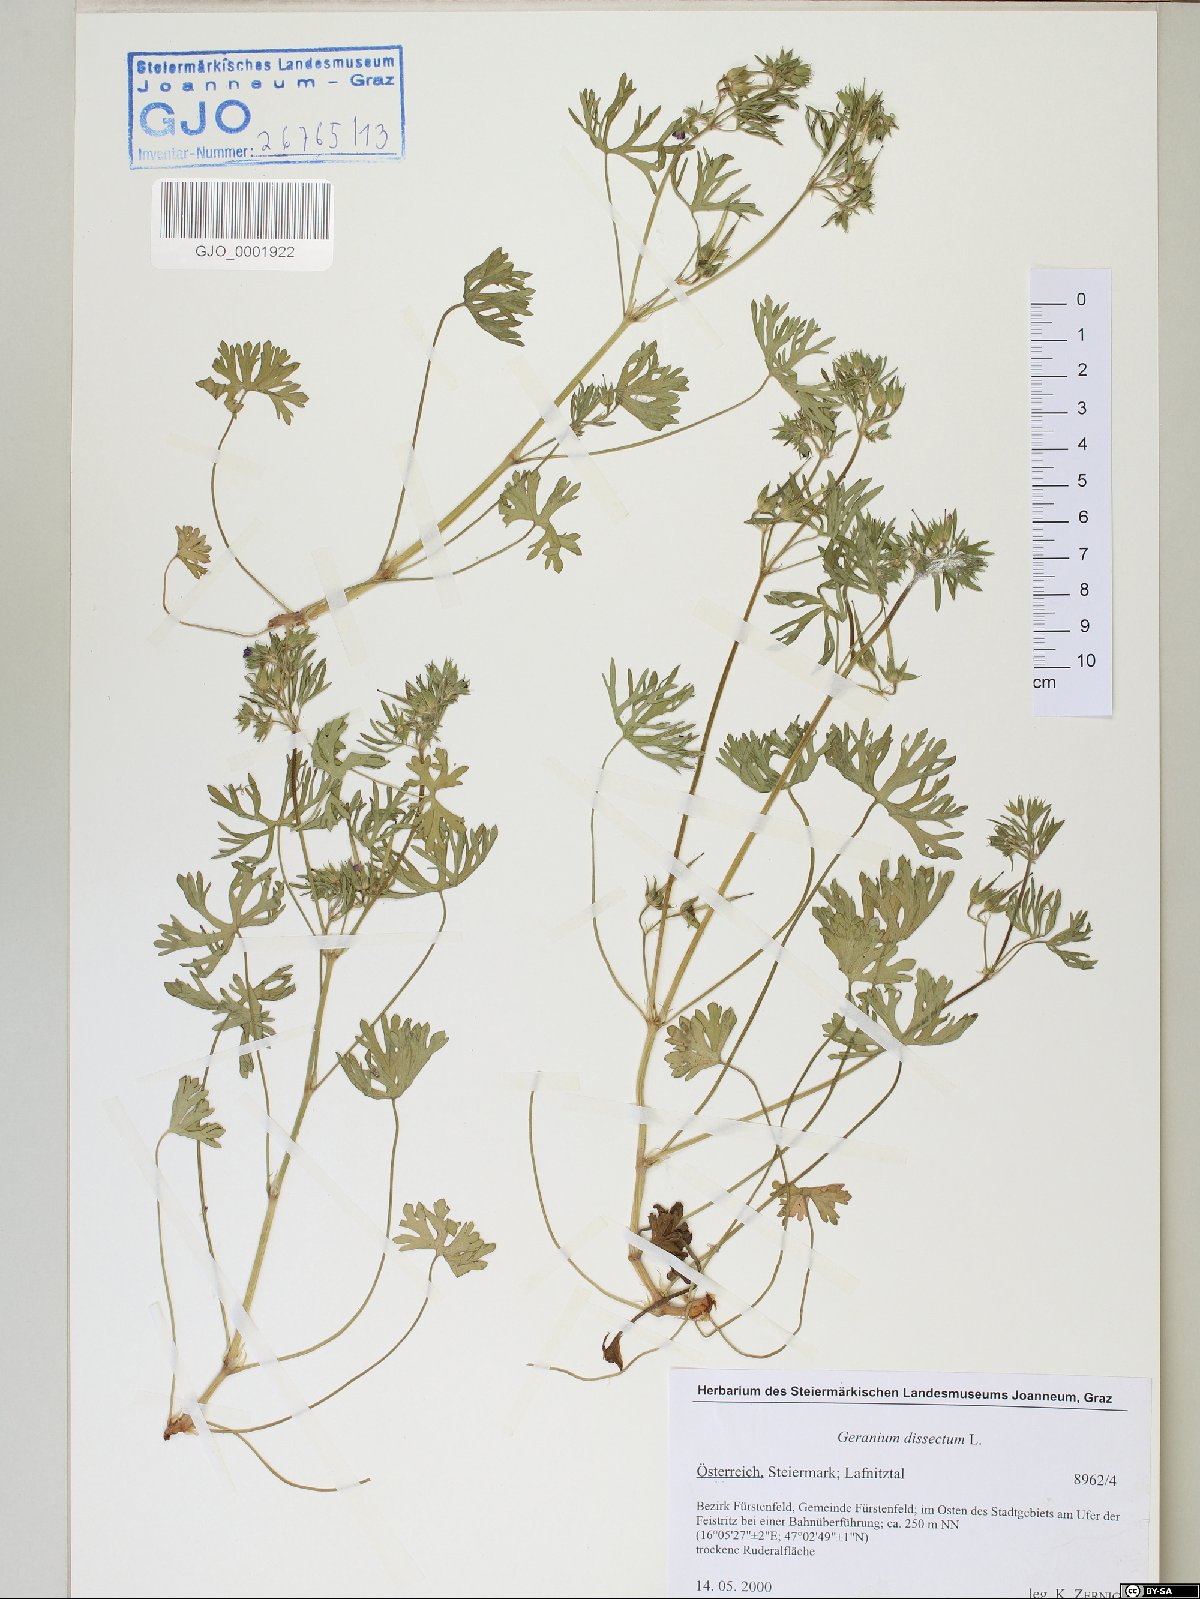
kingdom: Plantae
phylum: Tracheophyta
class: Magnoliopsida
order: Geraniales
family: Geraniaceae
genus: Geranium
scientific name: Geranium dissectum
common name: Cut-leaved crane's-bill
